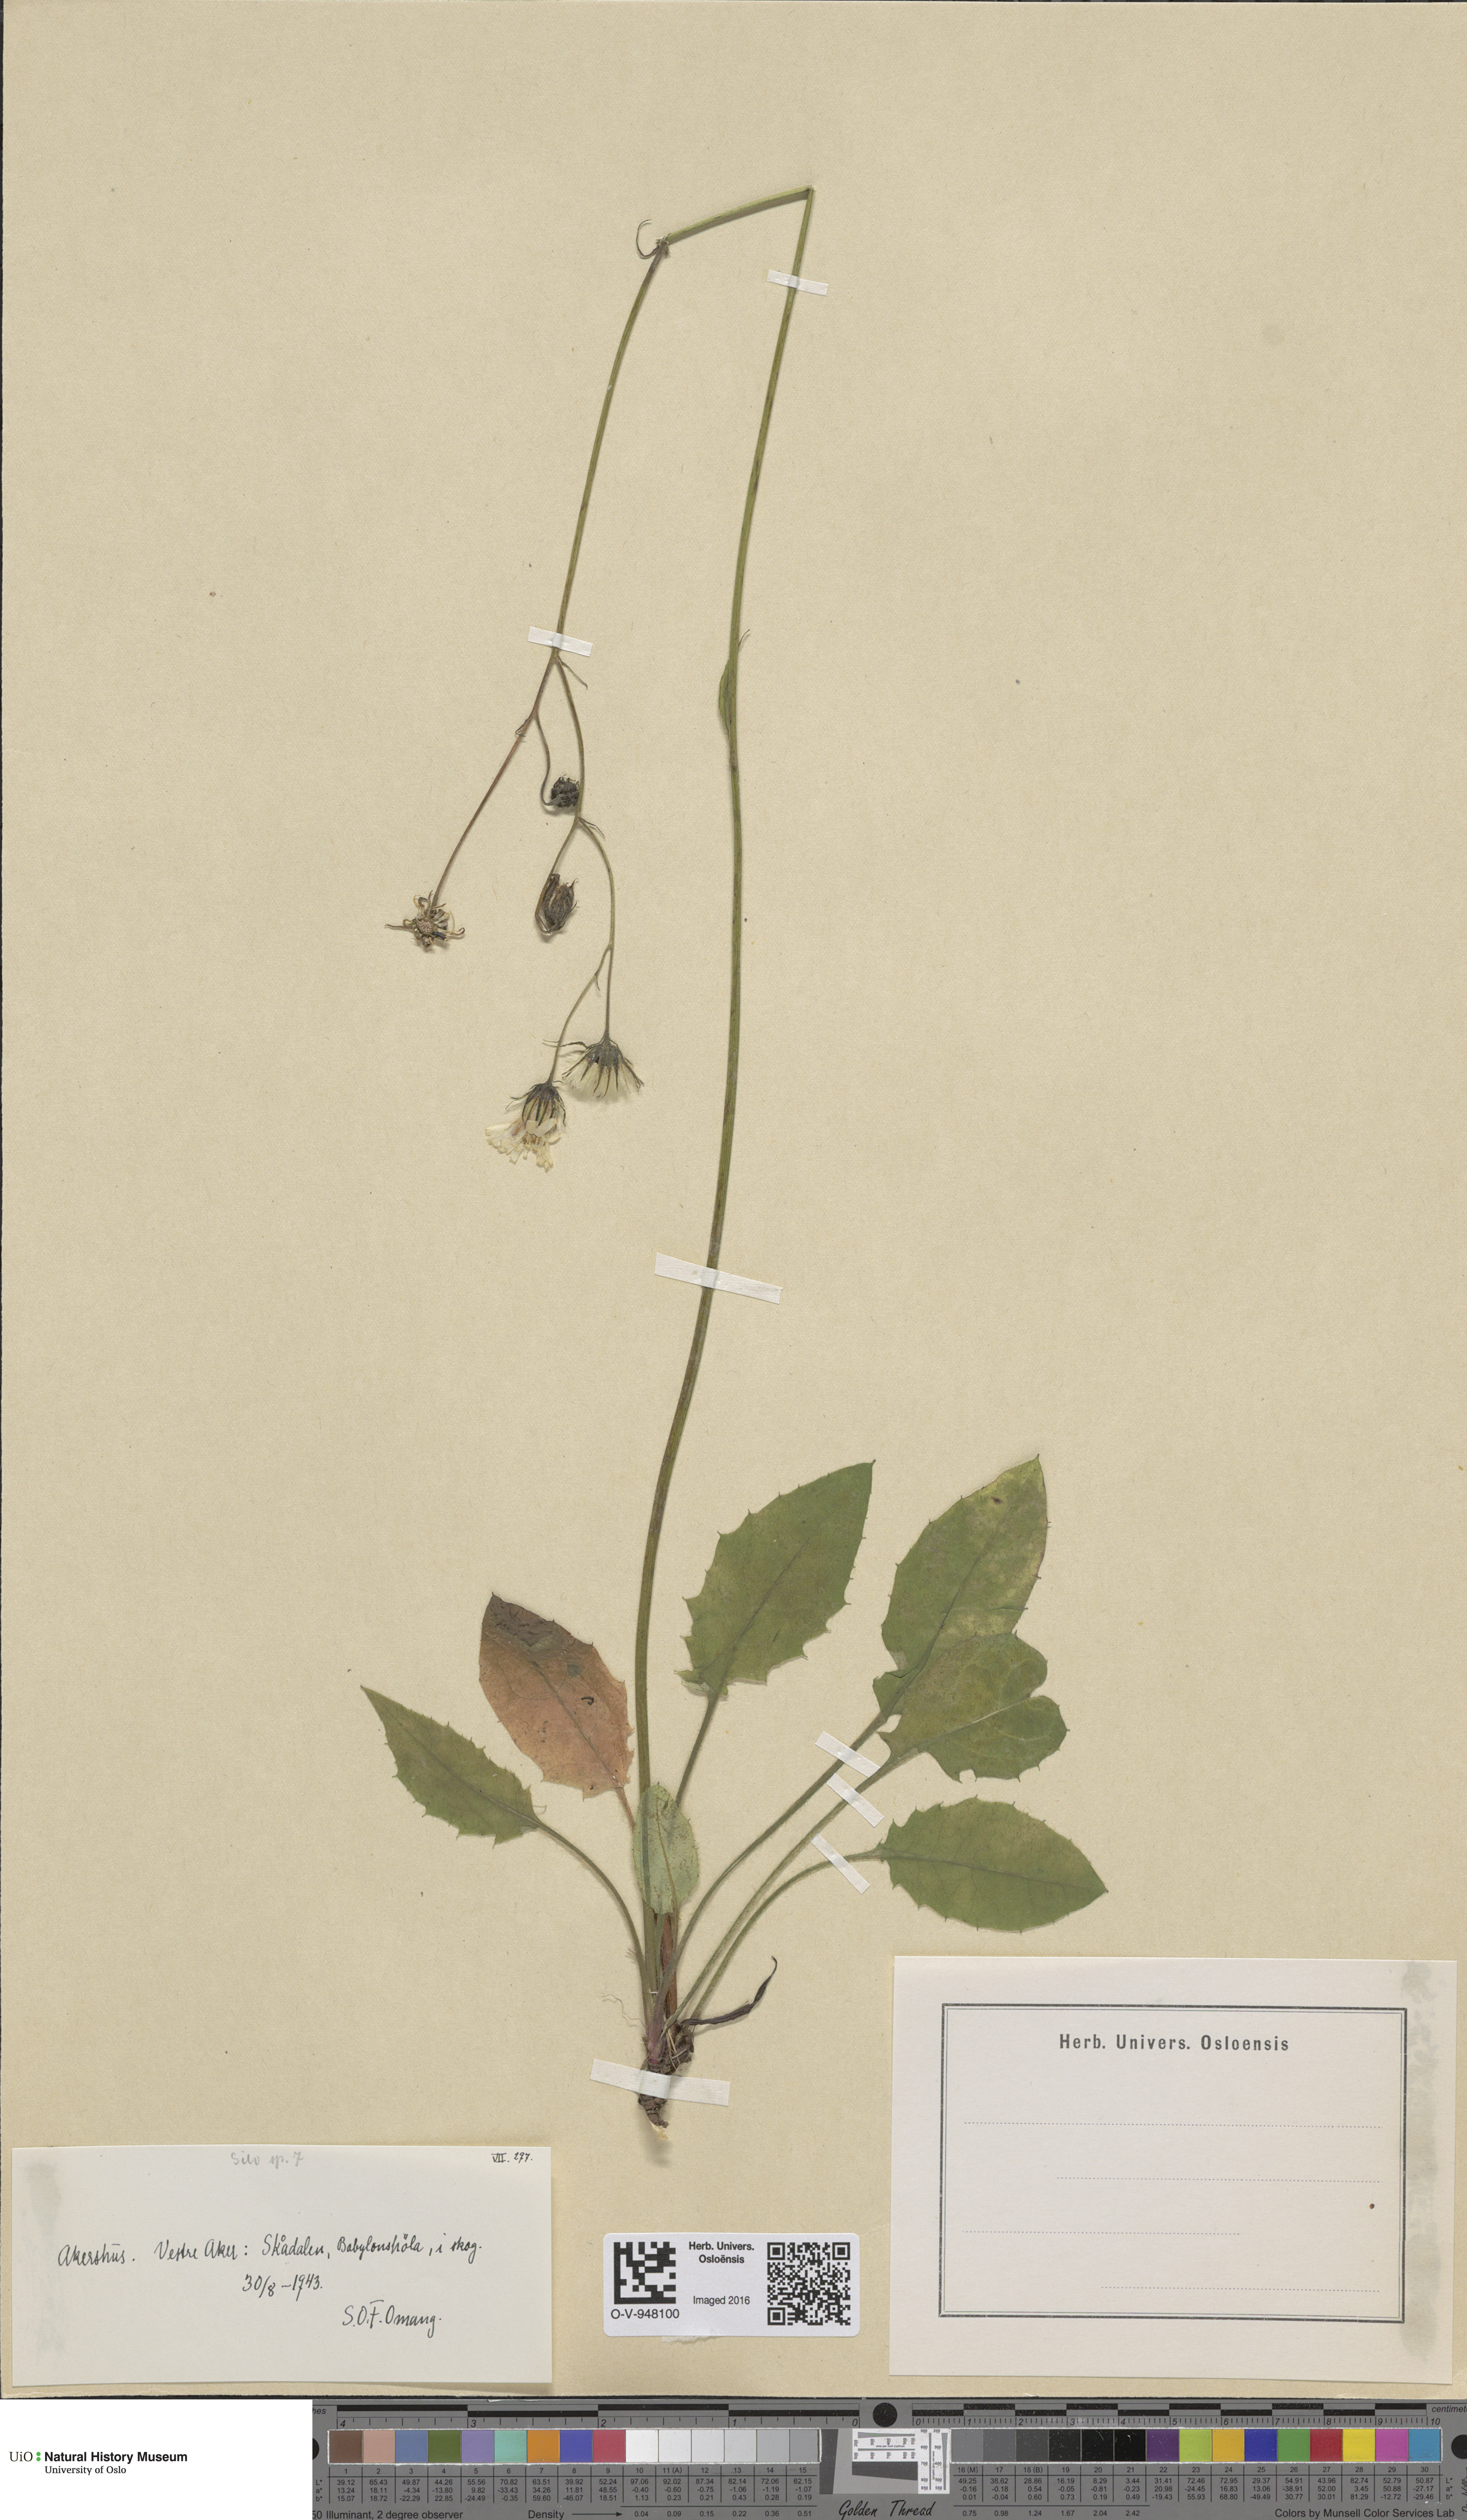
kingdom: Plantae
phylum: Tracheophyta
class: Magnoliopsida
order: Asterales
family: Asteraceae
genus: Hieracium
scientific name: Hieracium
